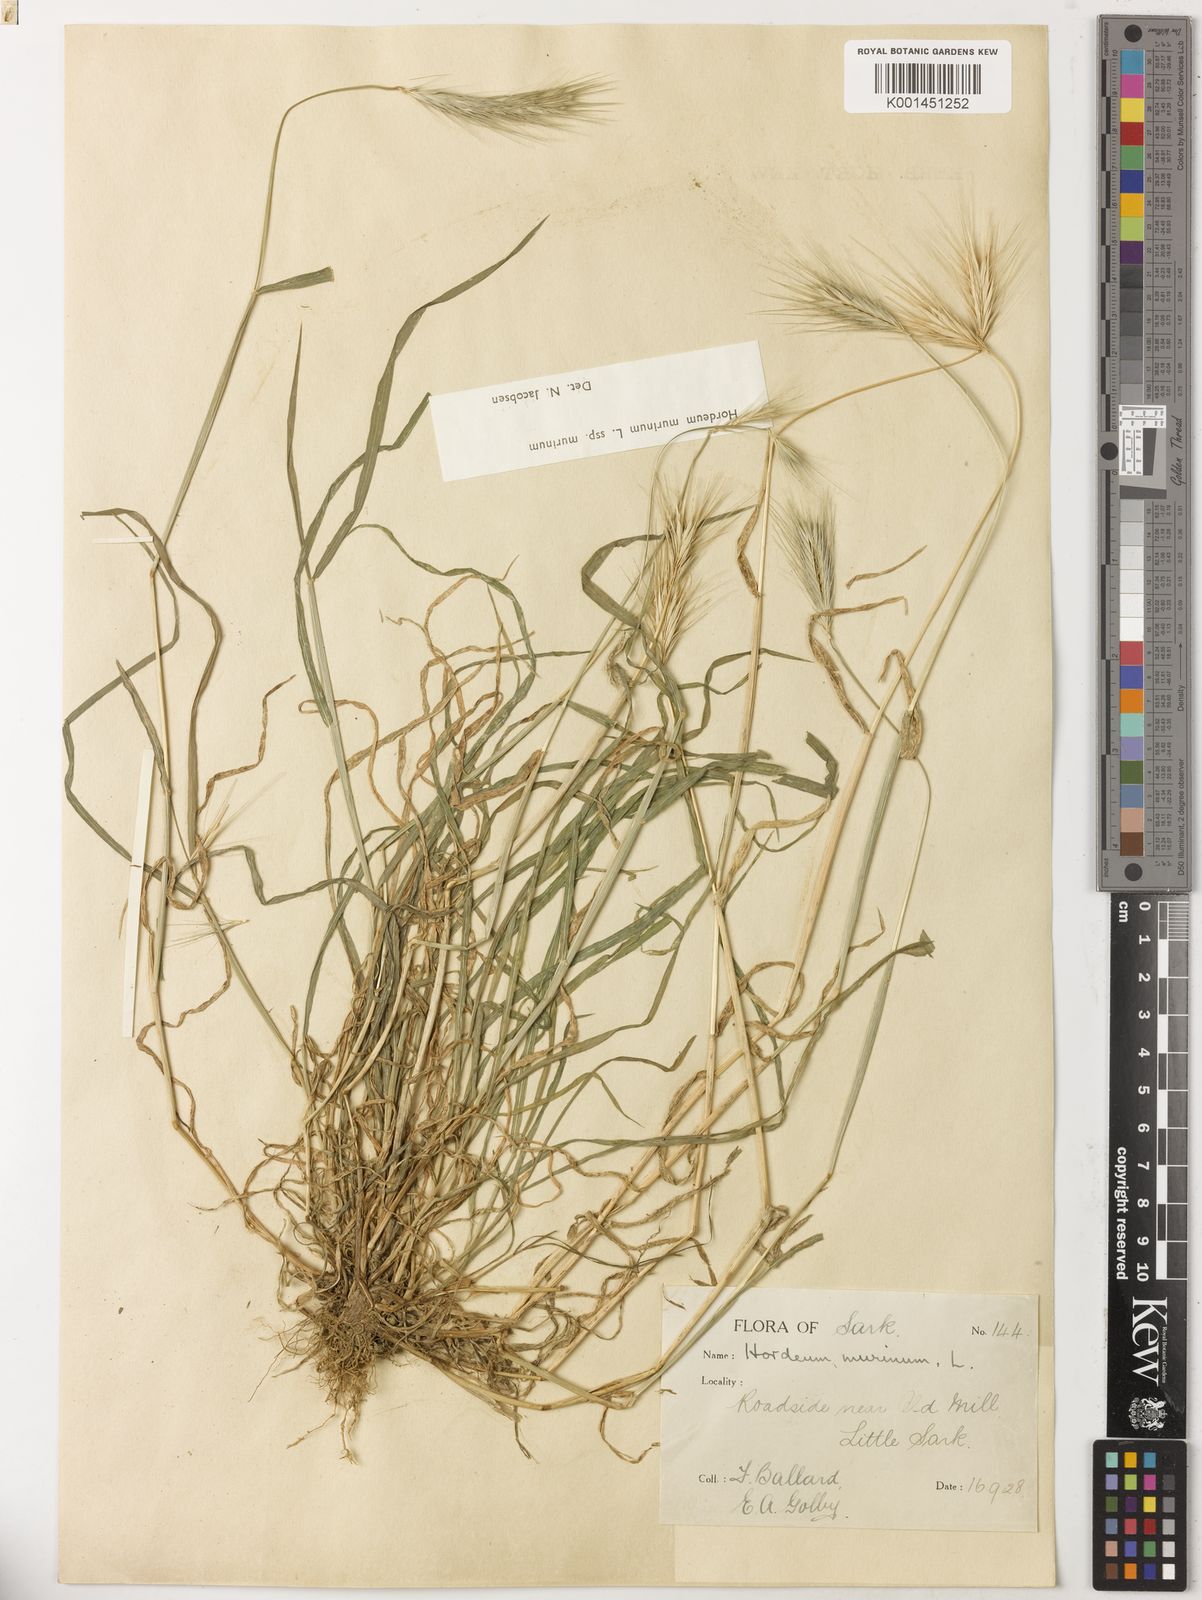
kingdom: Plantae
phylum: Tracheophyta
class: Liliopsida
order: Poales
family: Poaceae
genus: Hordeum
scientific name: Hordeum murinum
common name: Wall barley
